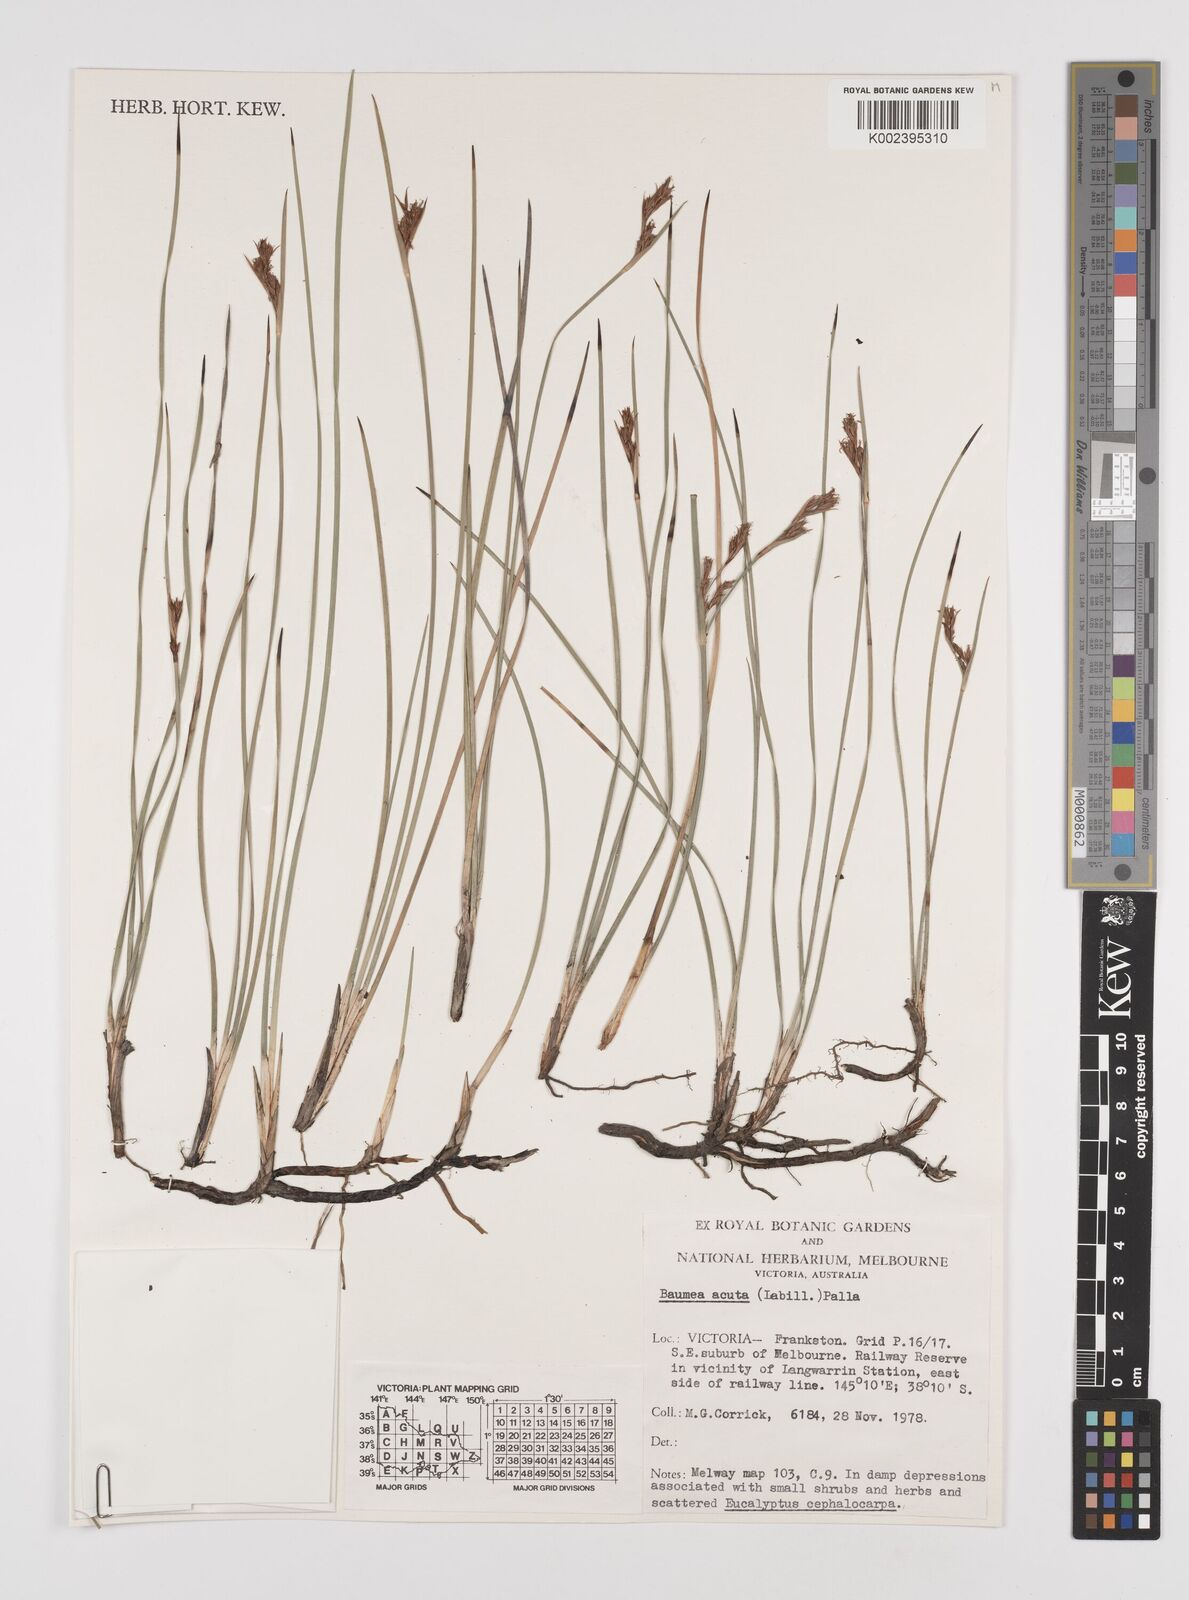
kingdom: Plantae
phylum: Tracheophyta
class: Liliopsida
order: Poales
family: Cyperaceae
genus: Machaerina
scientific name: Machaerina acuta
